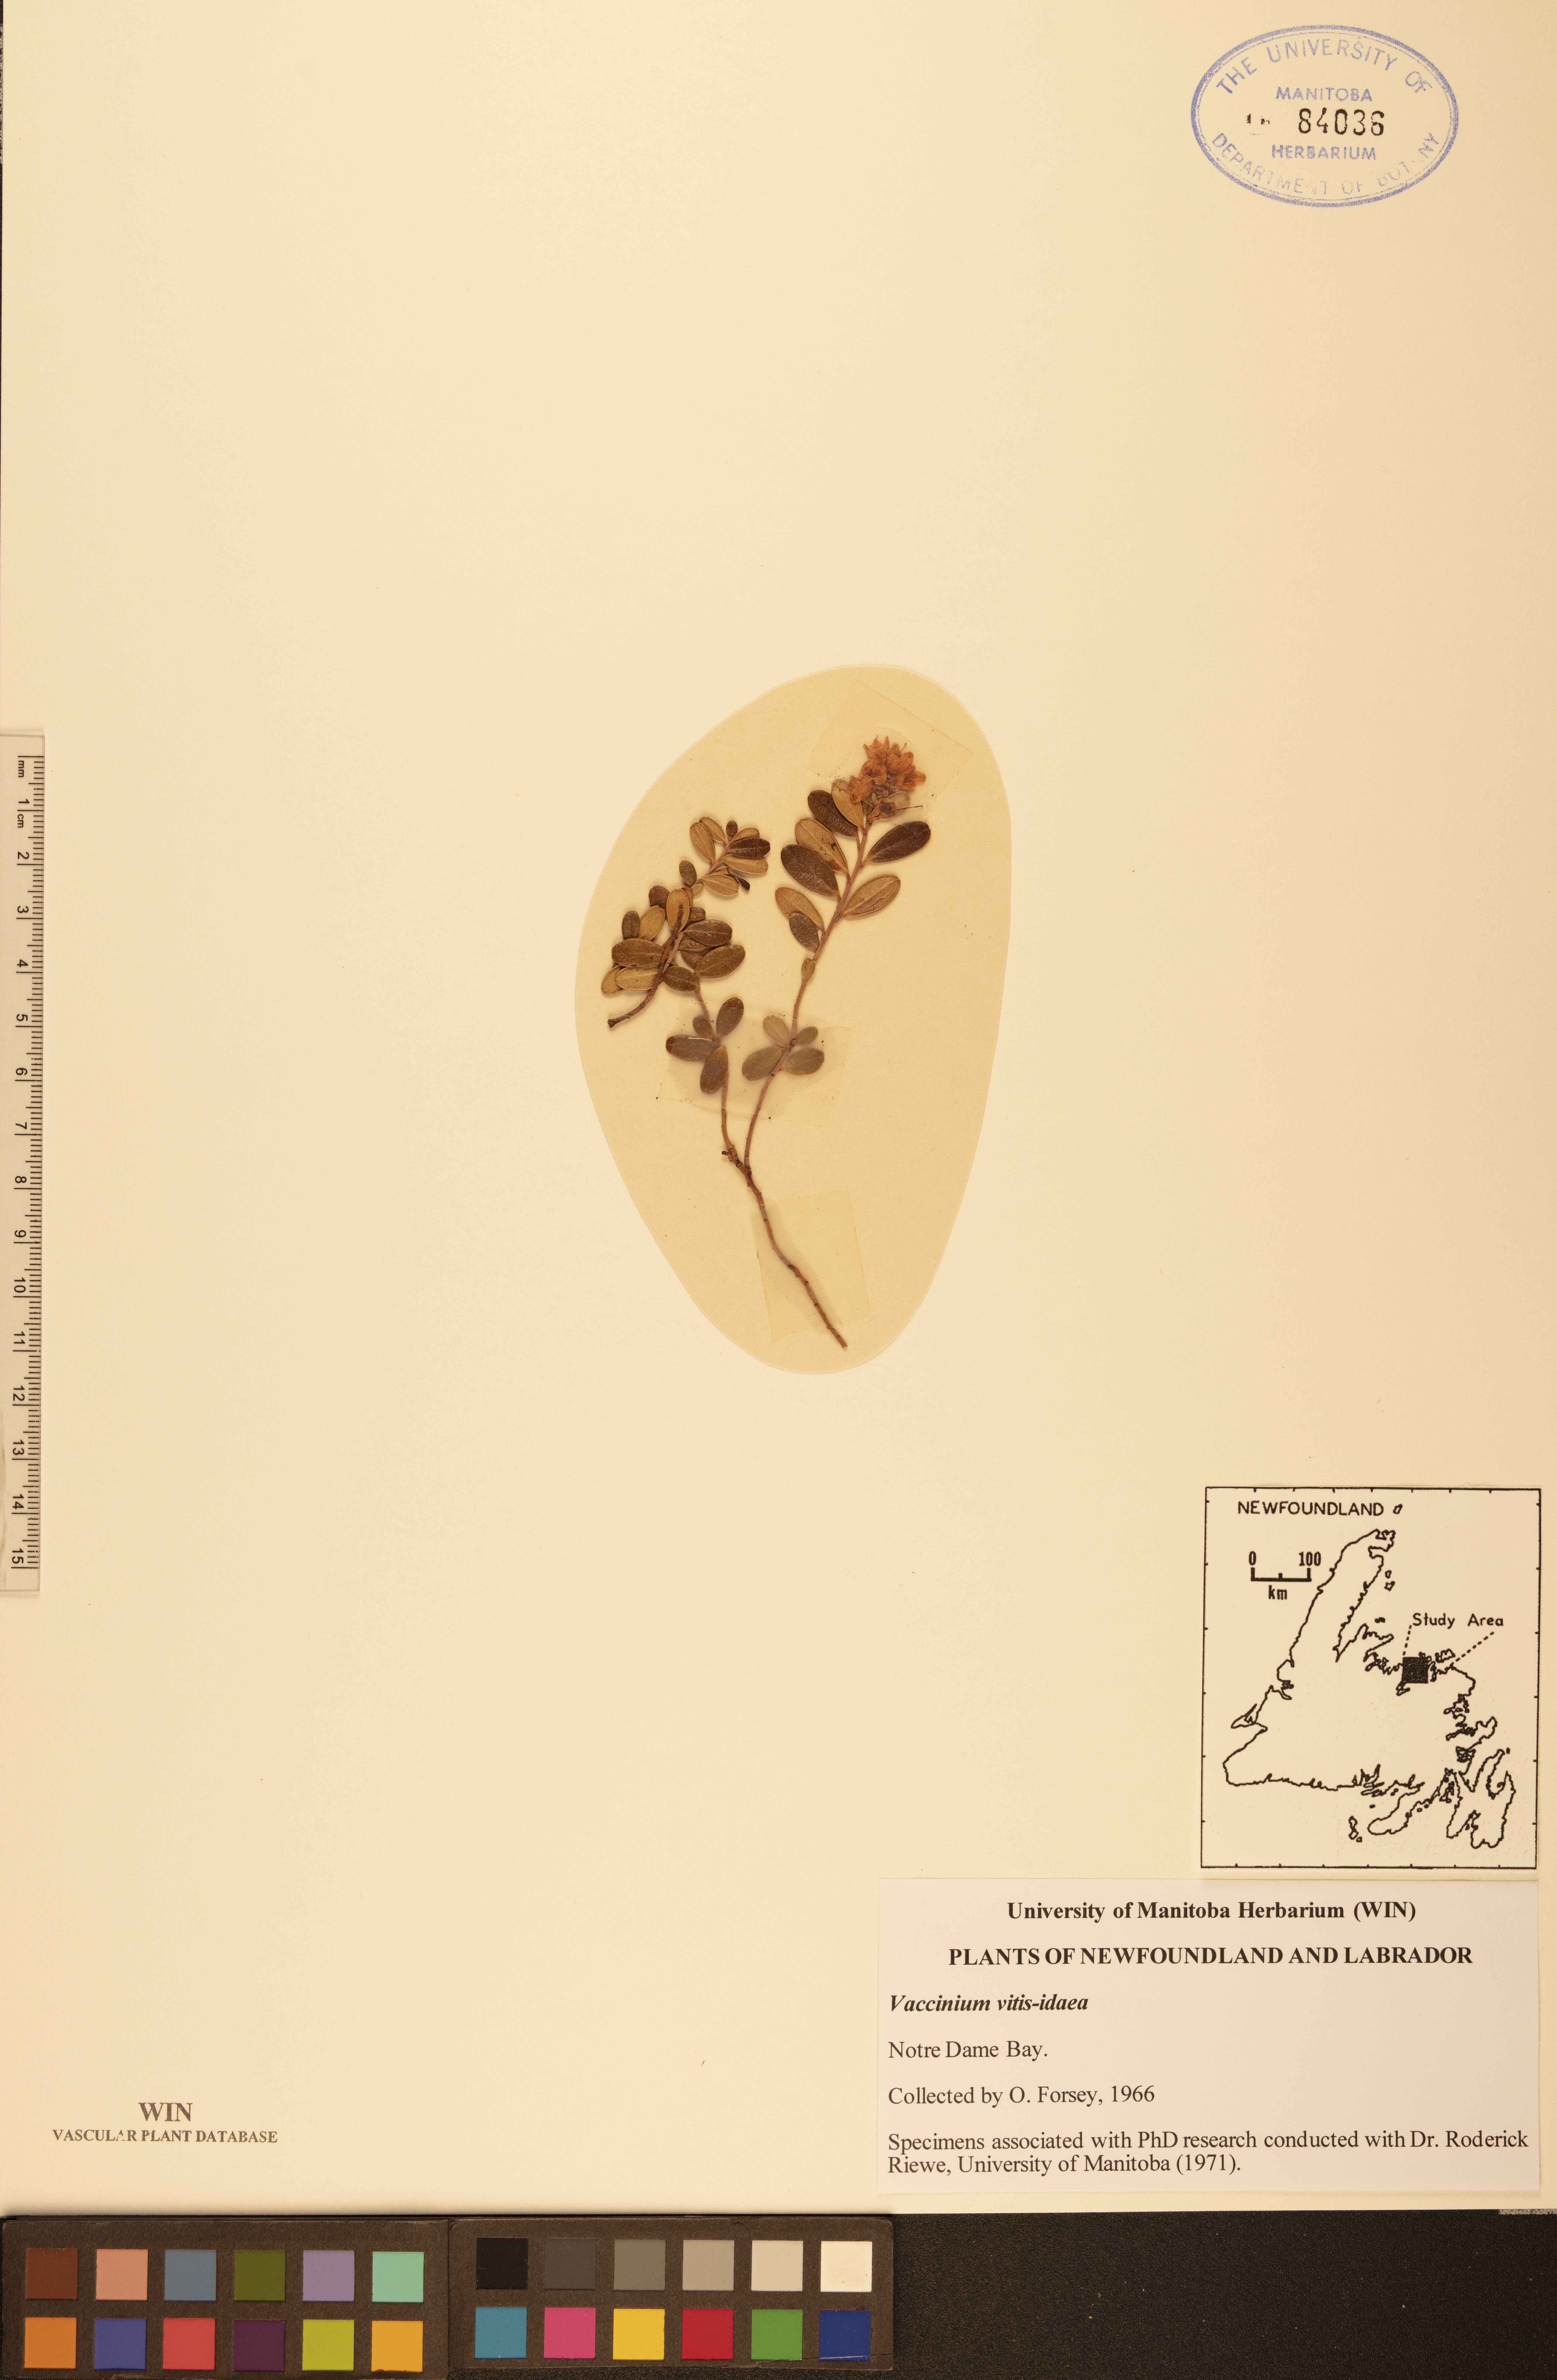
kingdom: Plantae
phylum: Tracheophyta
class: Magnoliopsida
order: Ericales
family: Ericaceae
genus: Vaccinium
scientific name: Vaccinium vitis-idaea
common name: Cowberry
